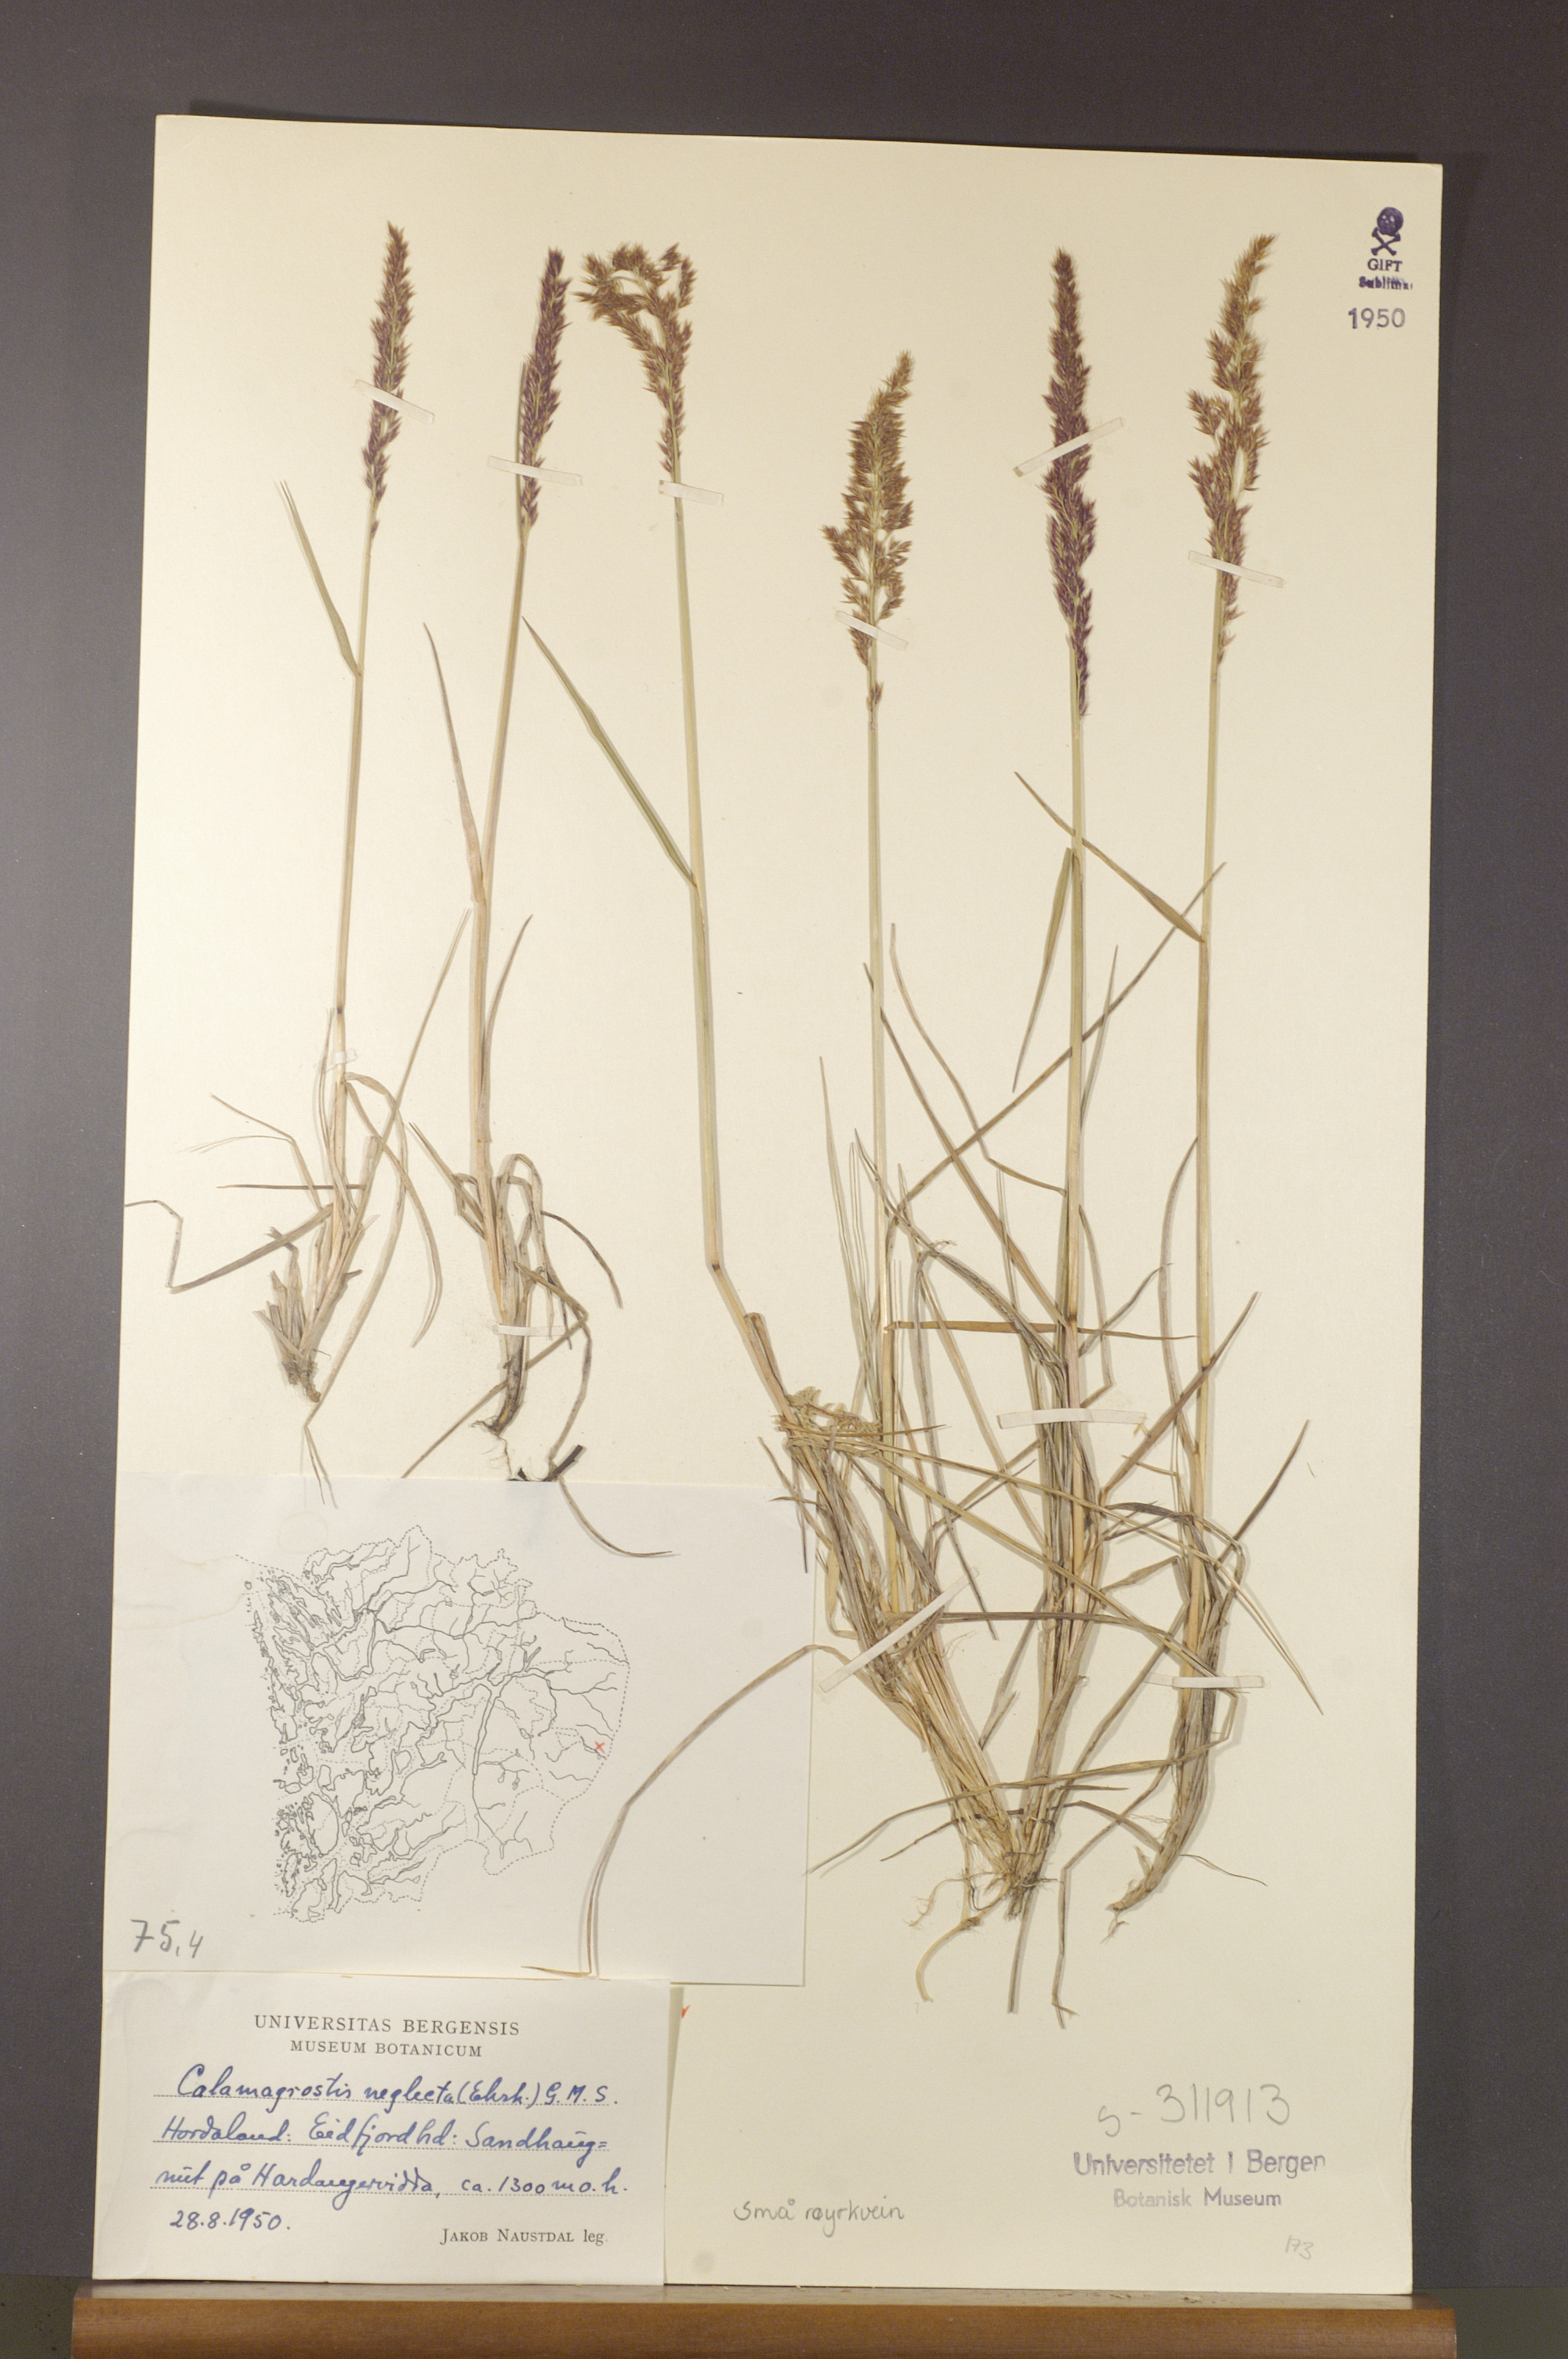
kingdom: Plantae
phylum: Tracheophyta
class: Liliopsida
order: Poales
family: Poaceae
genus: Achnatherum
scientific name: Achnatherum calamagrostis
